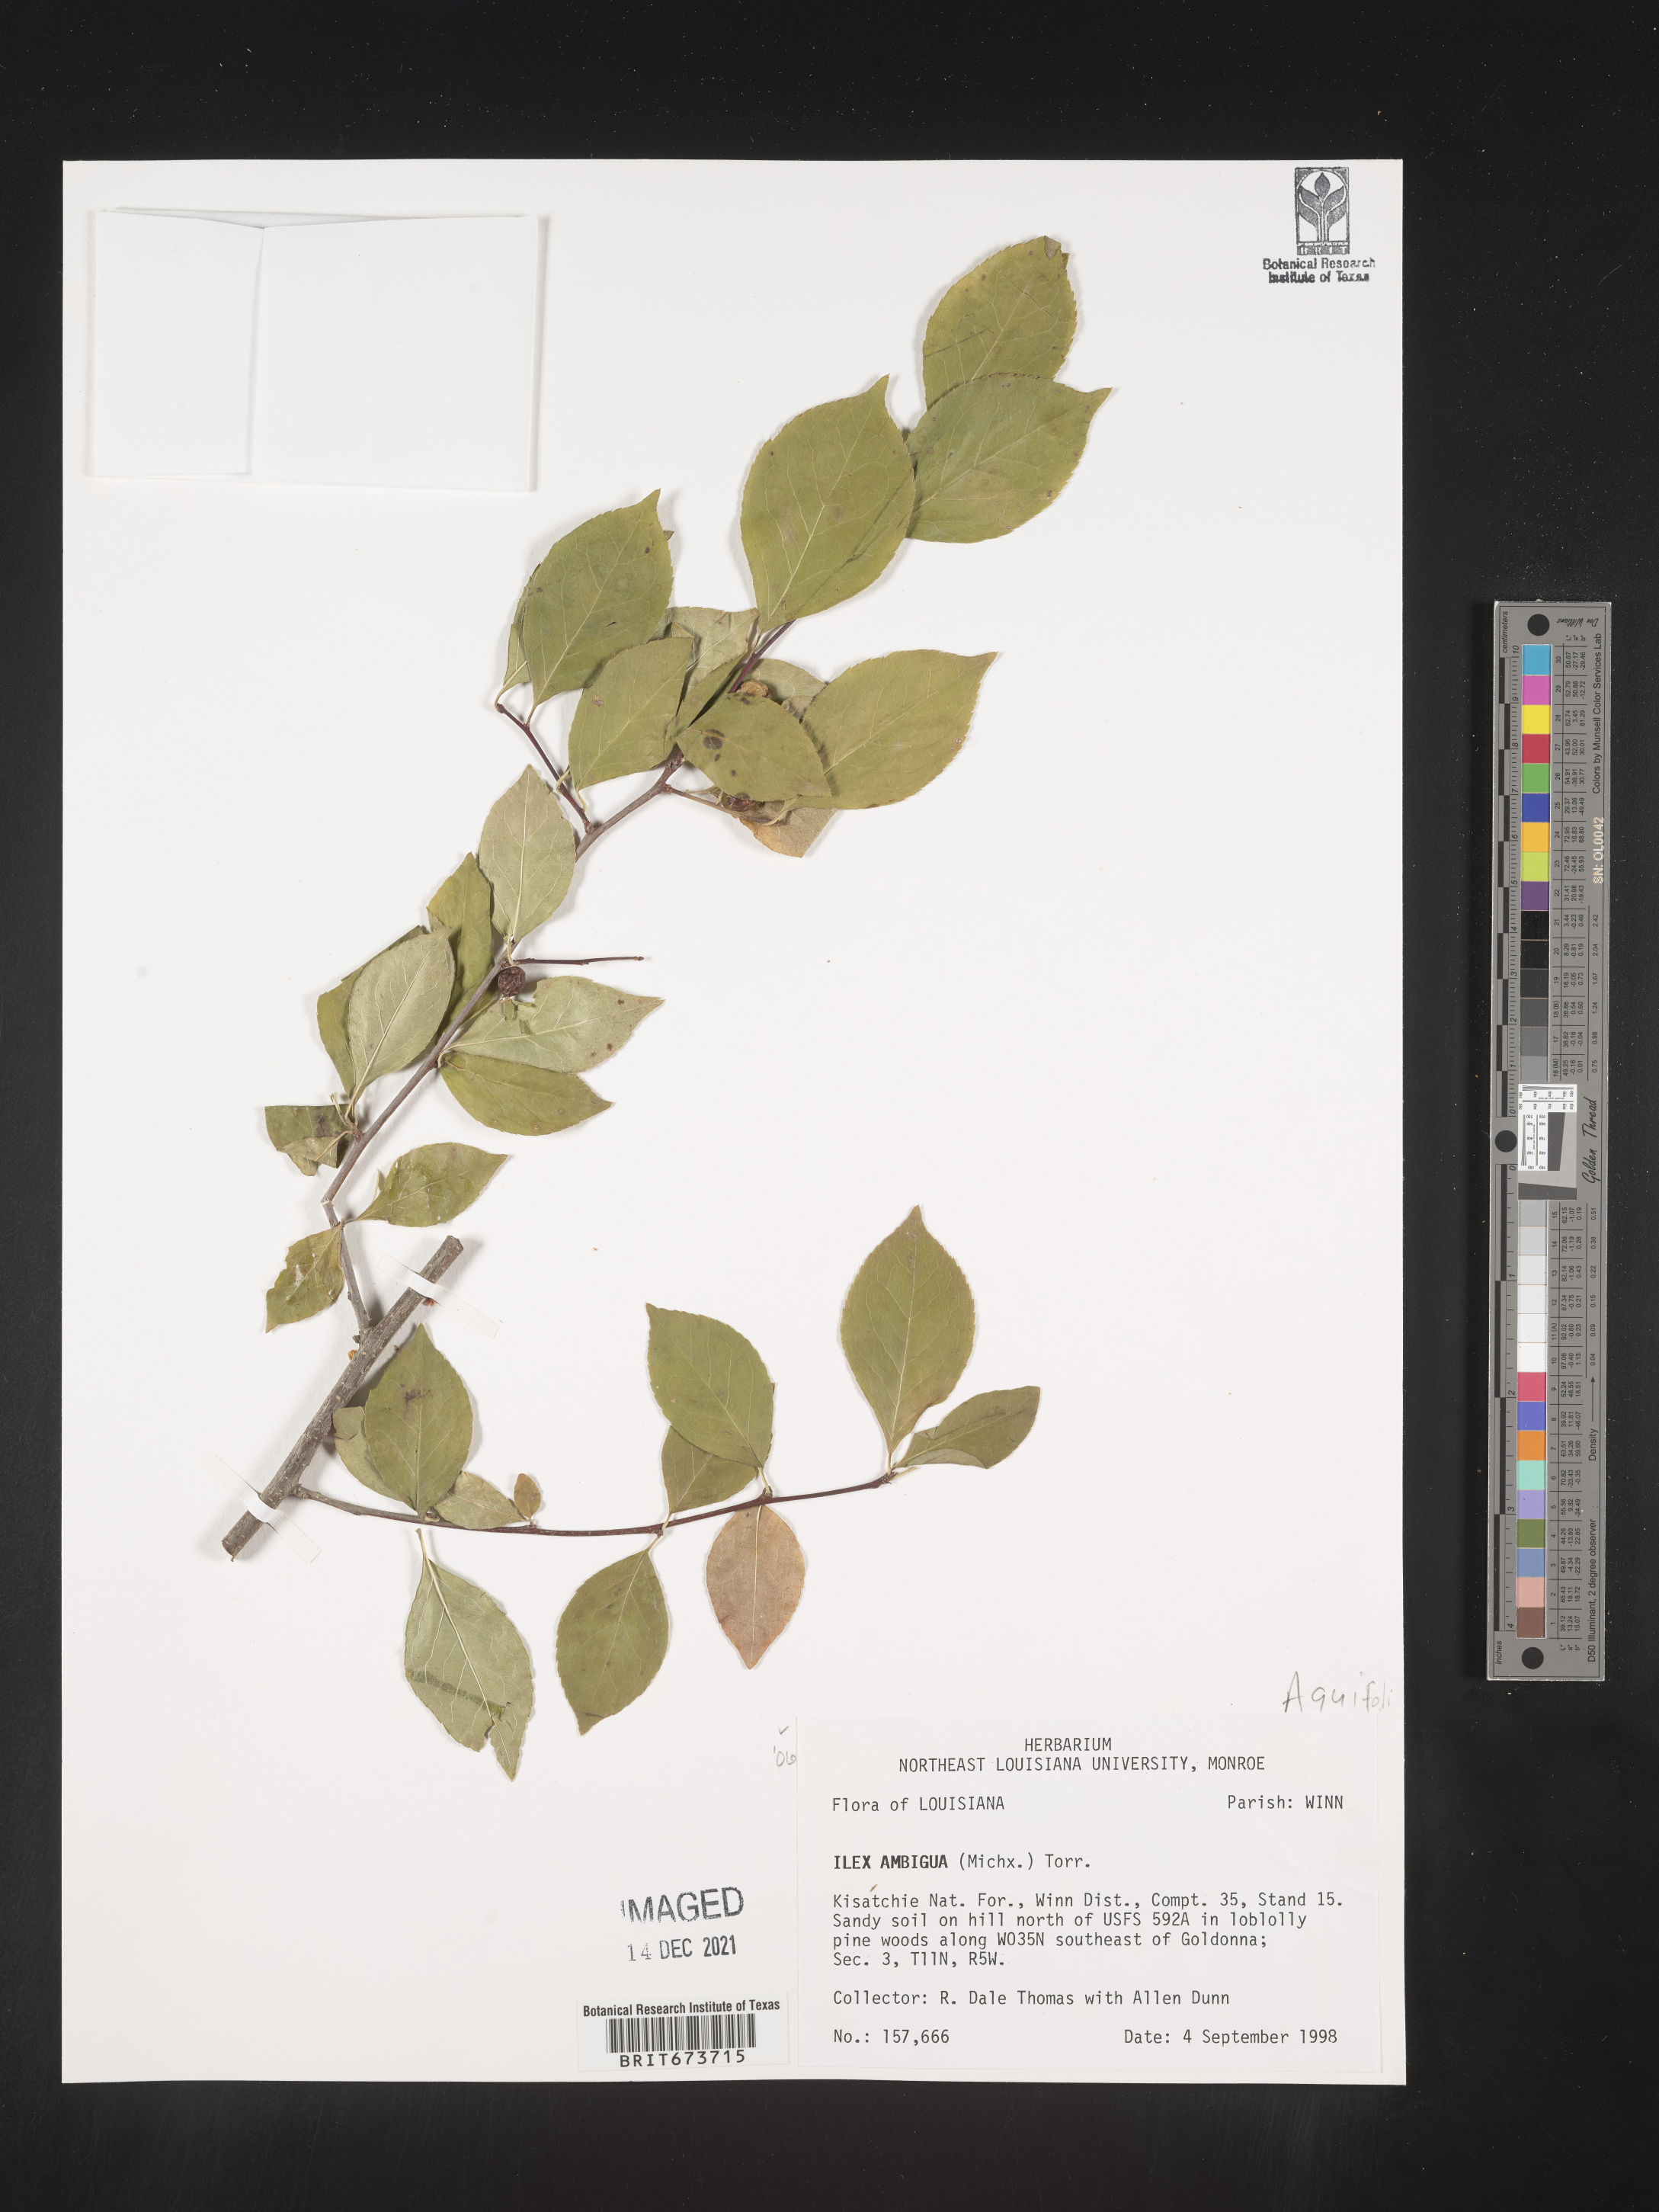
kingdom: Plantae
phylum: Tracheophyta
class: Magnoliopsida
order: Aquifoliales
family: Aquifoliaceae
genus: Ilex
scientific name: Ilex ambigua
